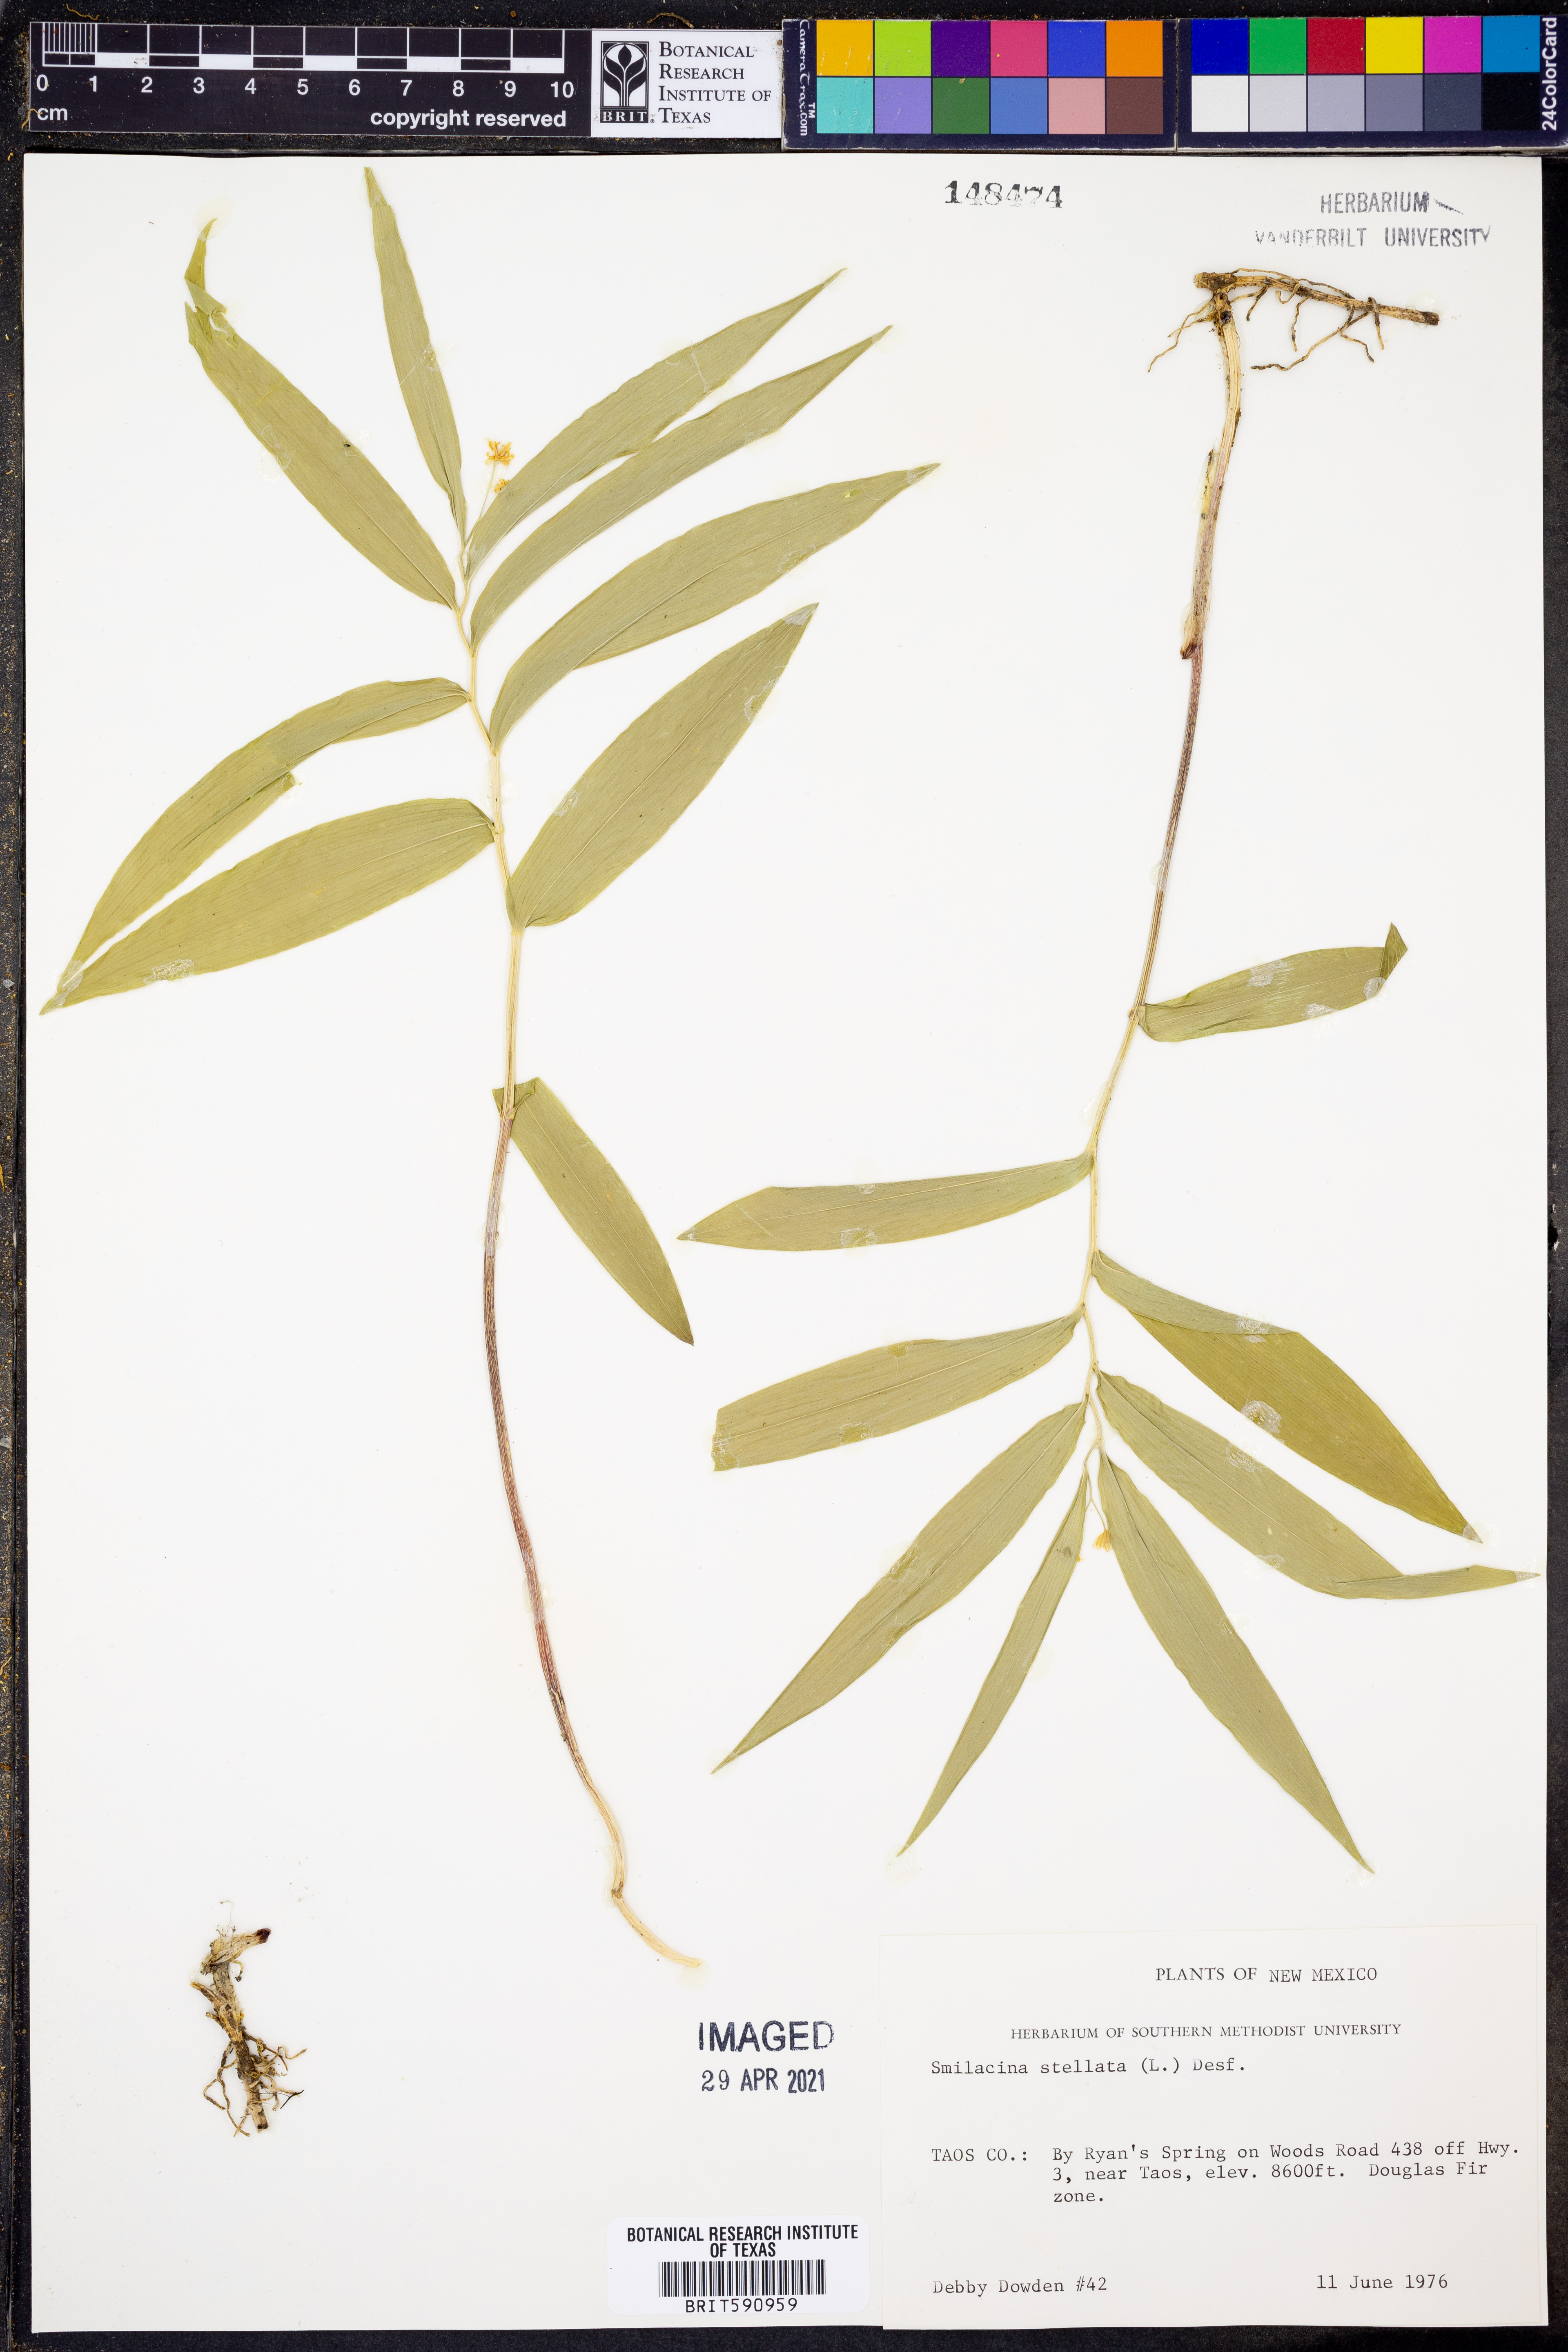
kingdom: Plantae
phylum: Tracheophyta
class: Liliopsida
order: Asparagales
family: Asparagaceae
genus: Maianthemum
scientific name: Maianthemum stellatum
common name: Little false solomon's seal
